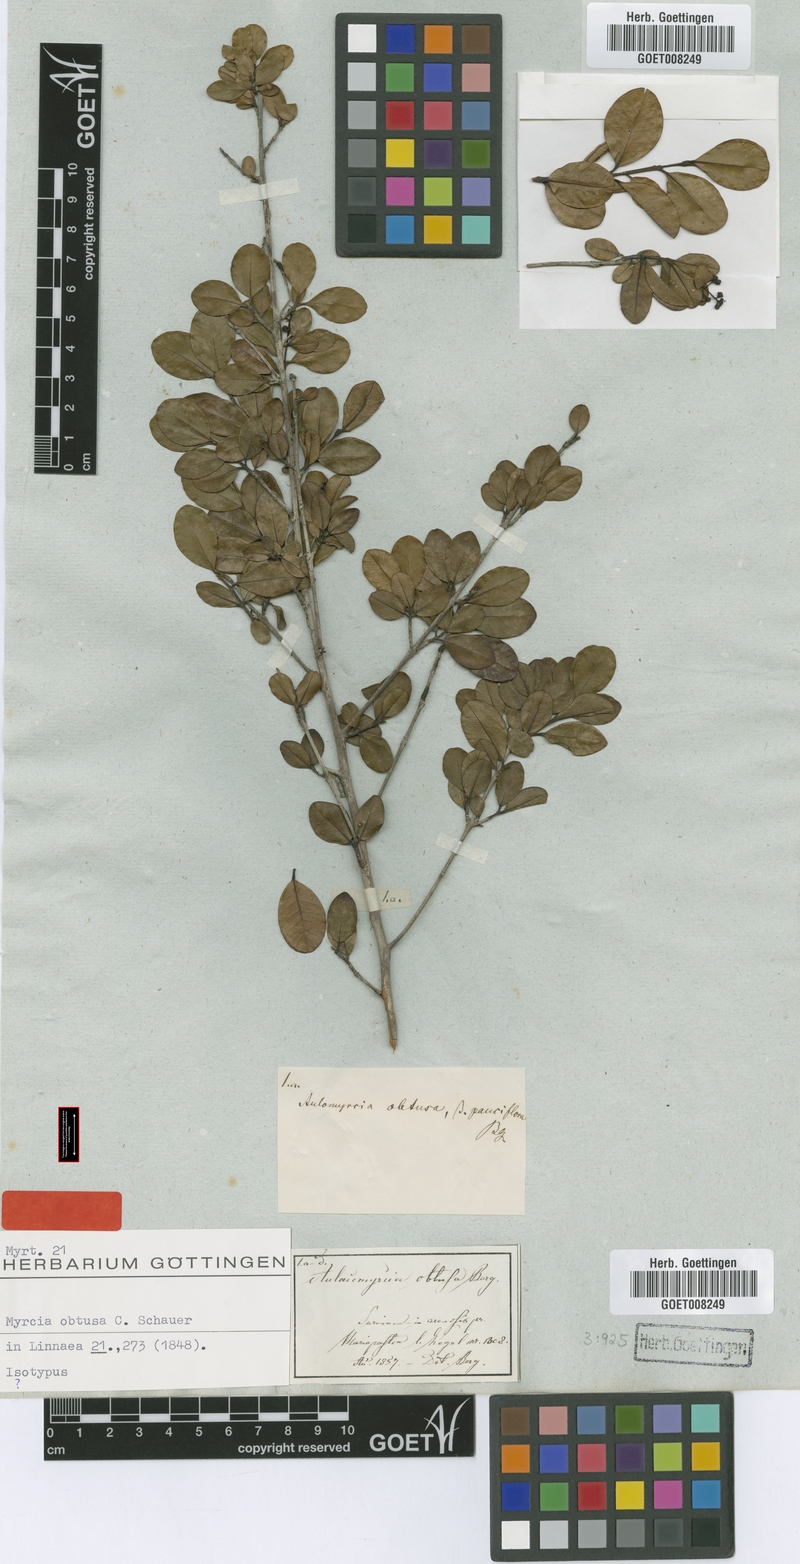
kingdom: Plantae
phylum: Tracheophyta
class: Magnoliopsida
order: Myrtales
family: Myrtaceae
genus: Myrcia
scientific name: Myrcia guianensis
